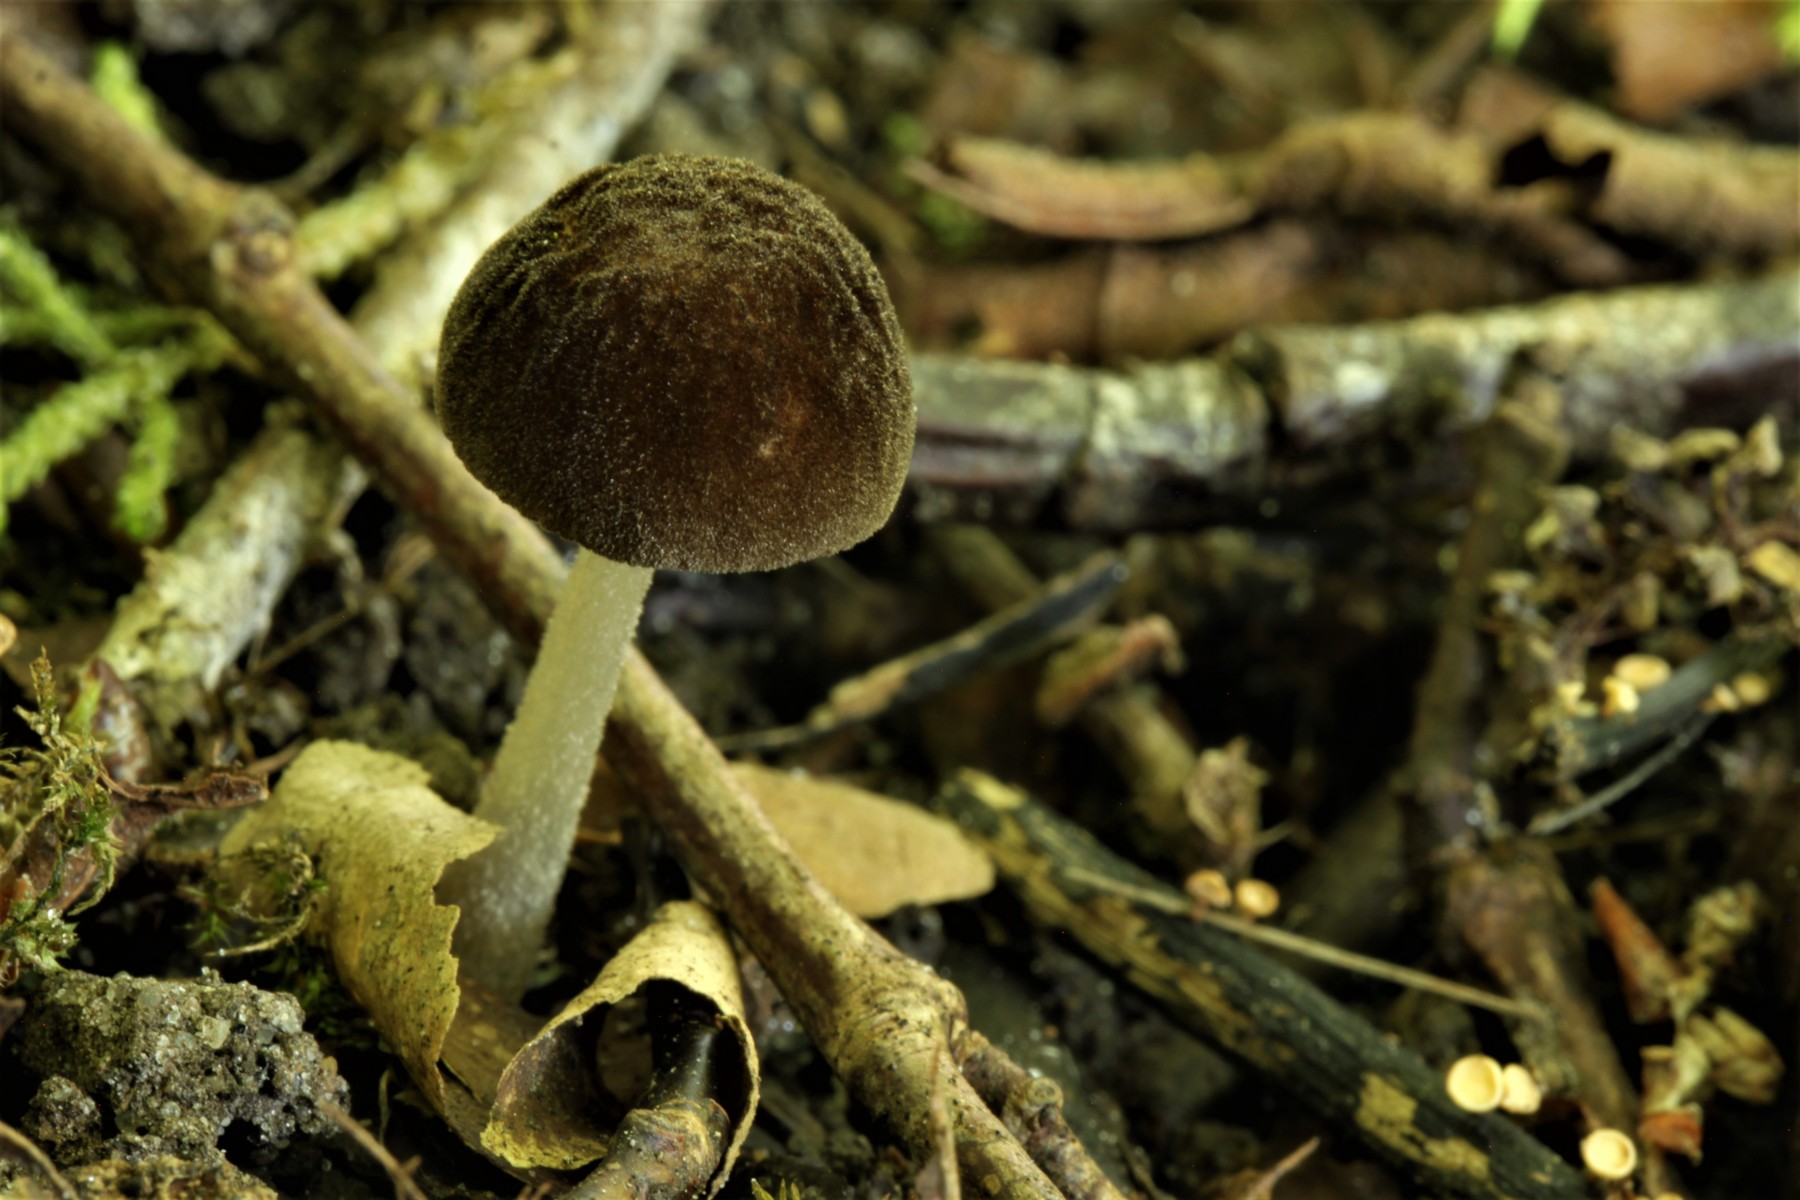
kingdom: Fungi
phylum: Basidiomycota
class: Agaricomycetes
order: Agaricales
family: Pluteaceae
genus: Pluteus
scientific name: Pluteus podospileus
